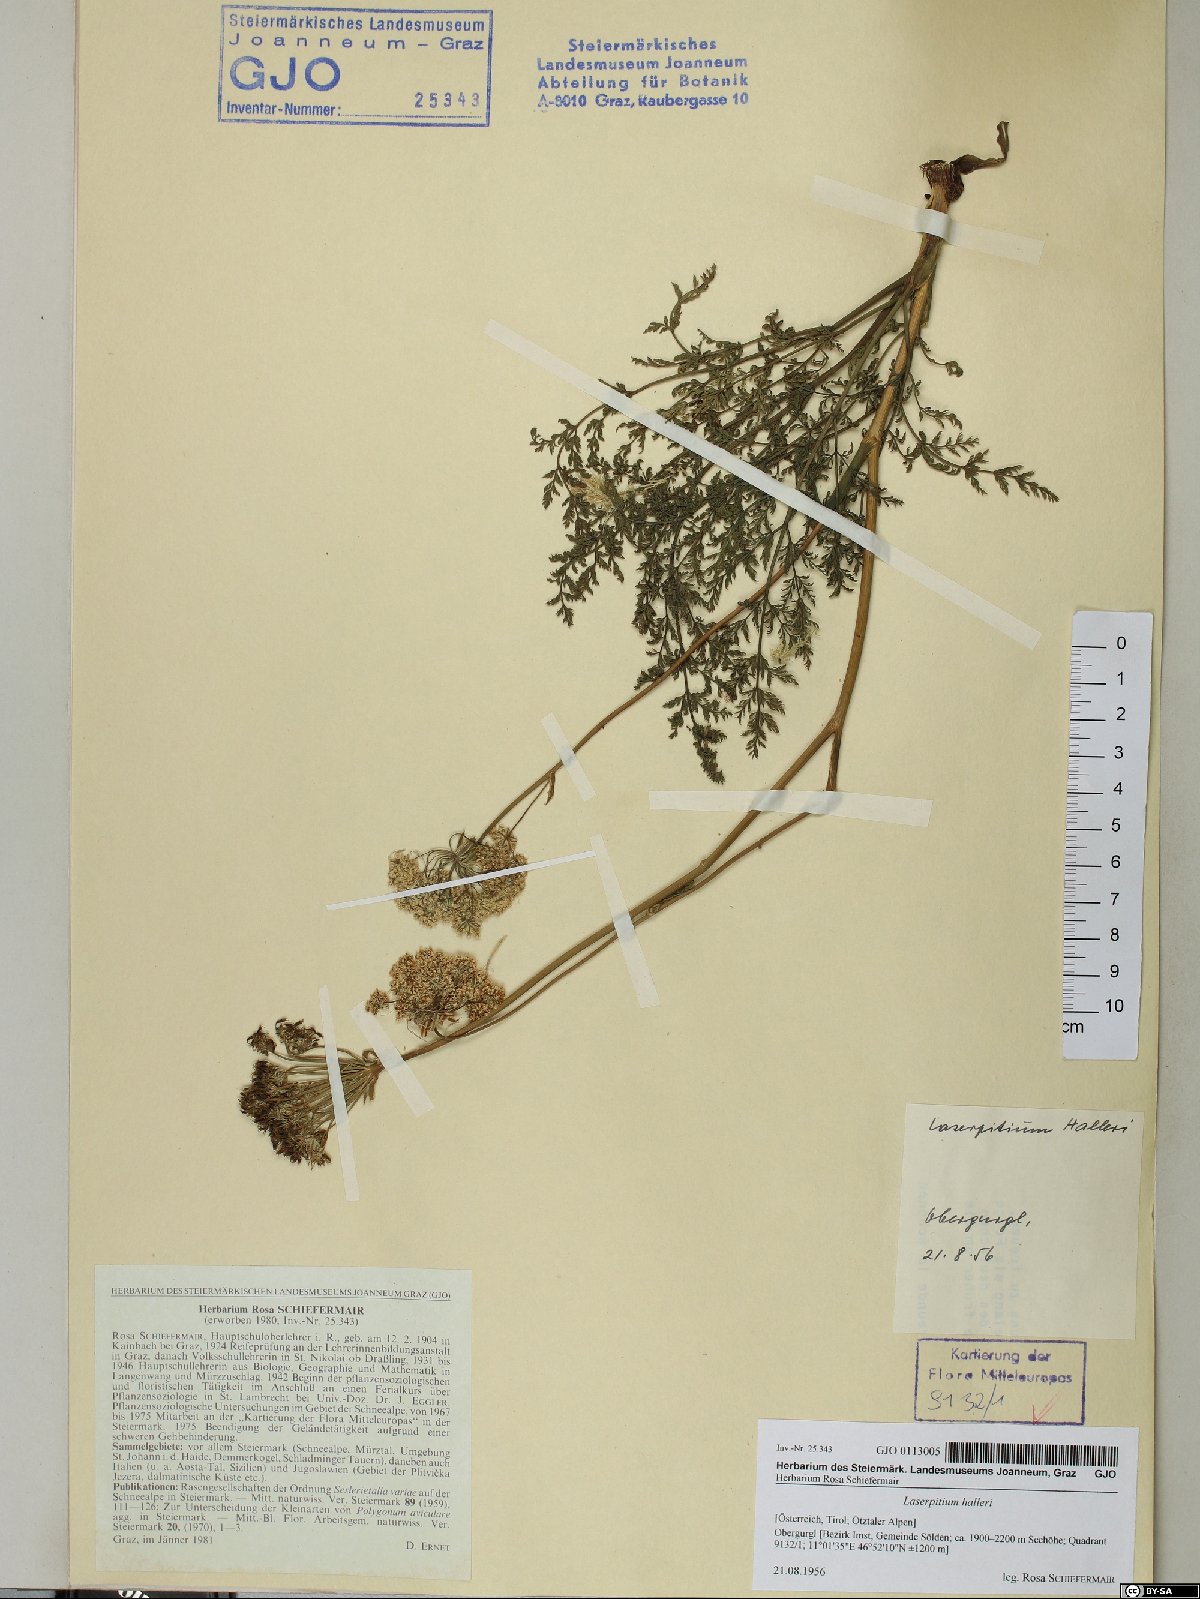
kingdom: Plantae
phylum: Tracheophyta
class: Magnoliopsida
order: Apiales
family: Apiaceae
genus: Laserpitium
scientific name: Laserpitium halleri
